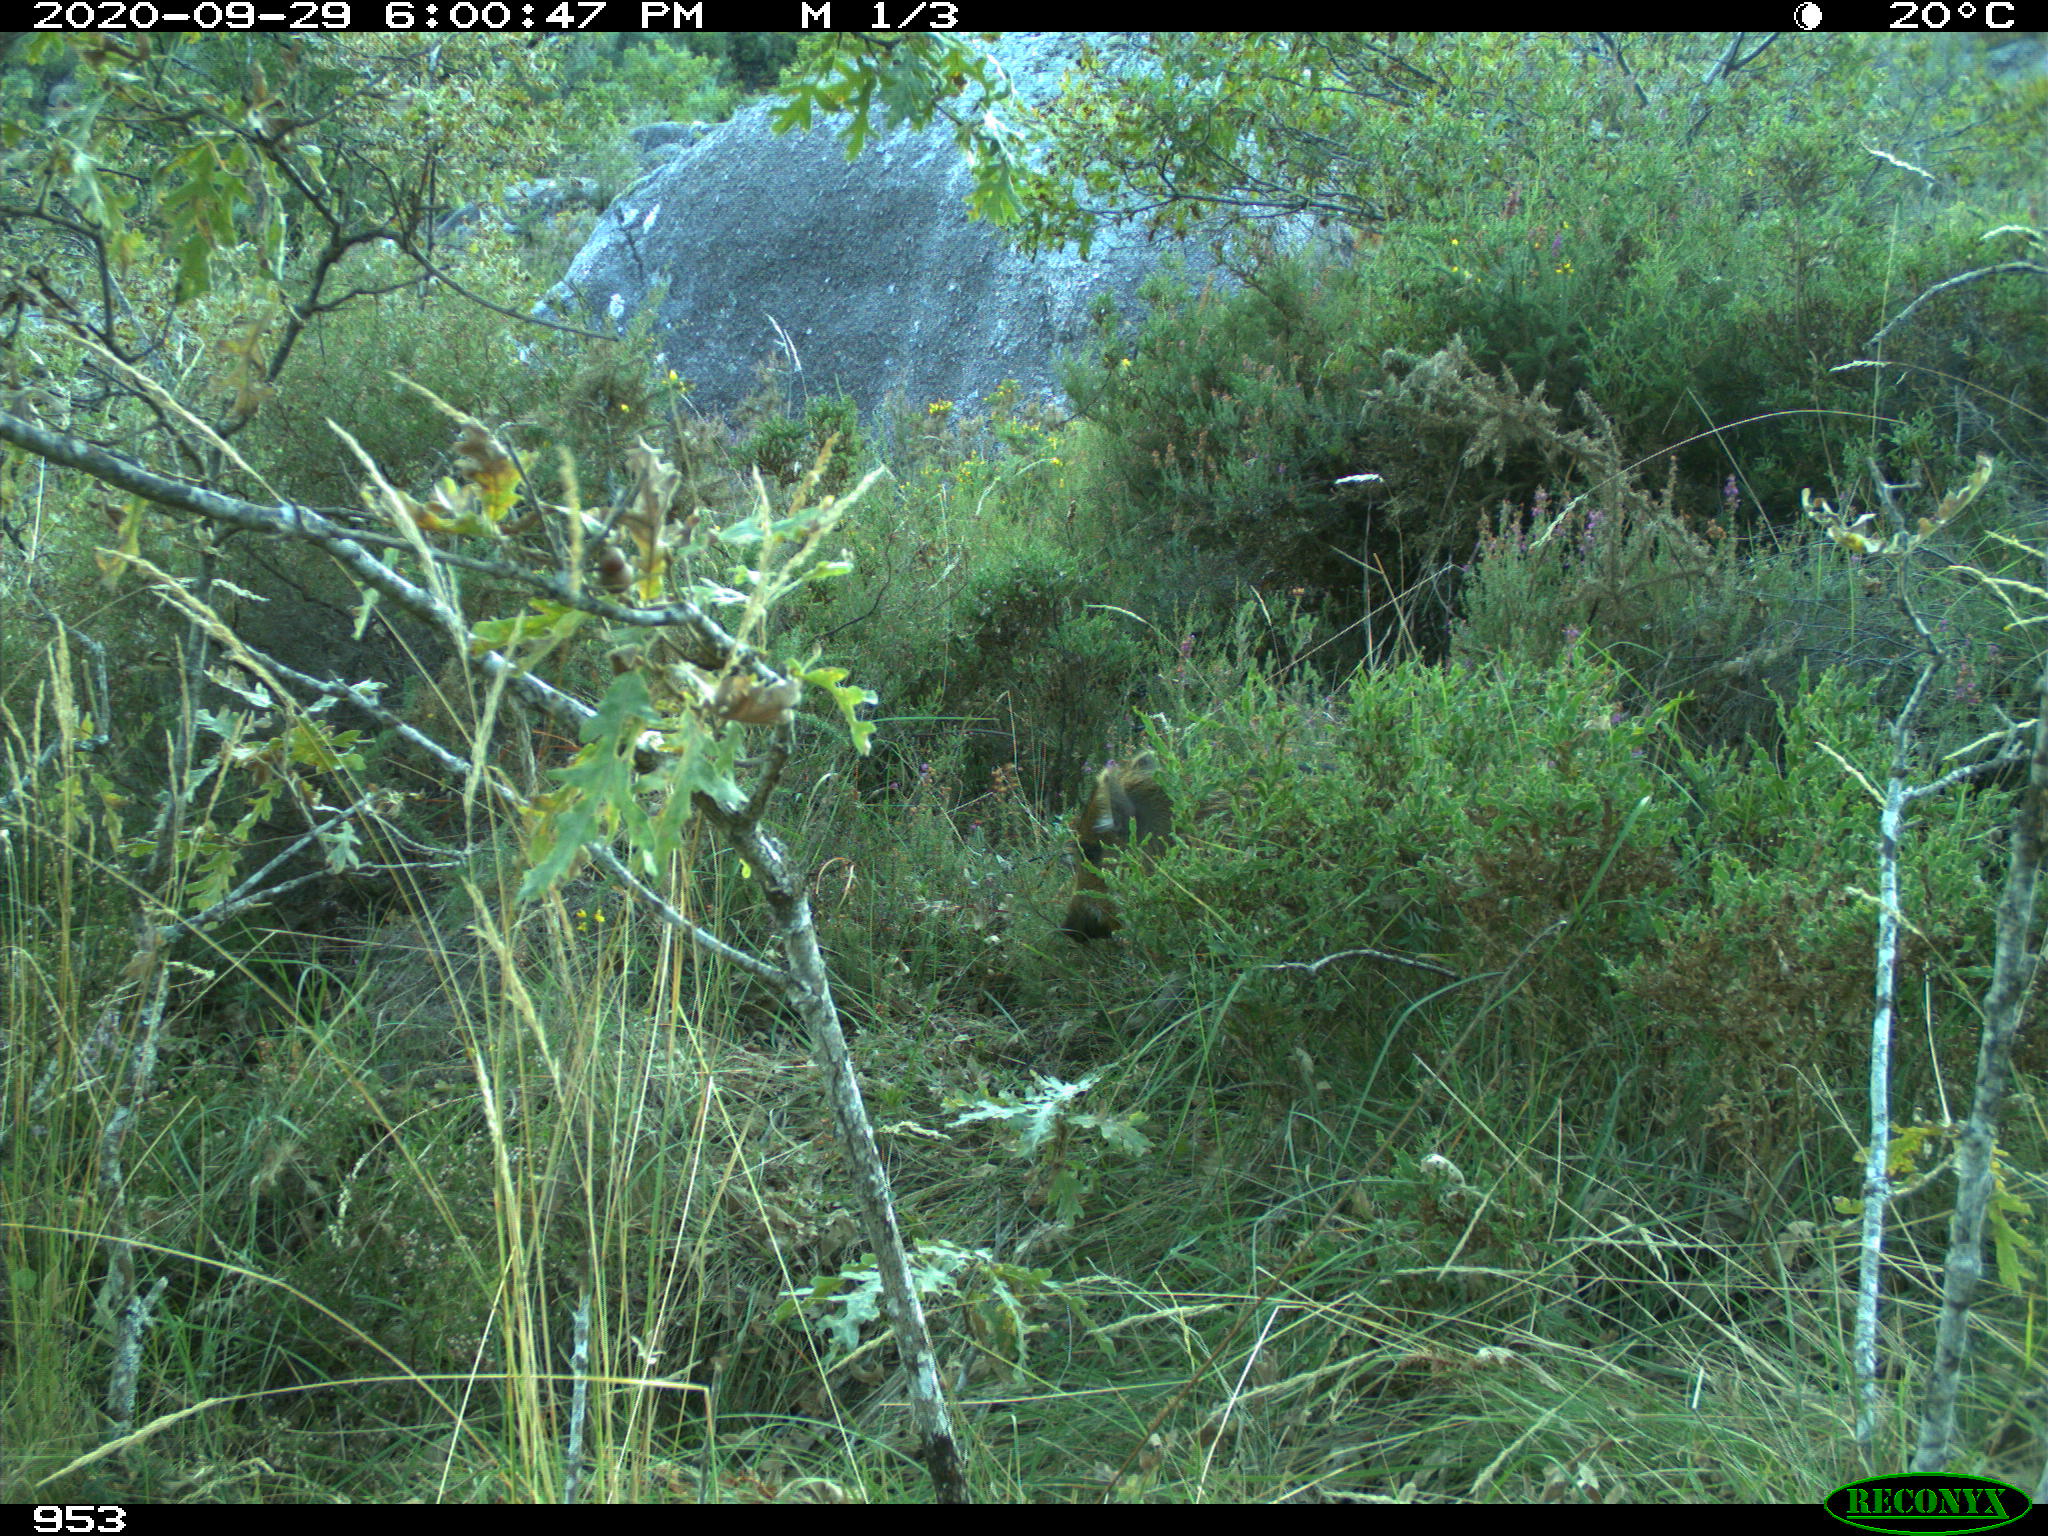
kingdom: Animalia
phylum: Chordata
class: Mammalia
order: Artiodactyla
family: Suidae
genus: Sus
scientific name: Sus scrofa
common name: Wild boar
